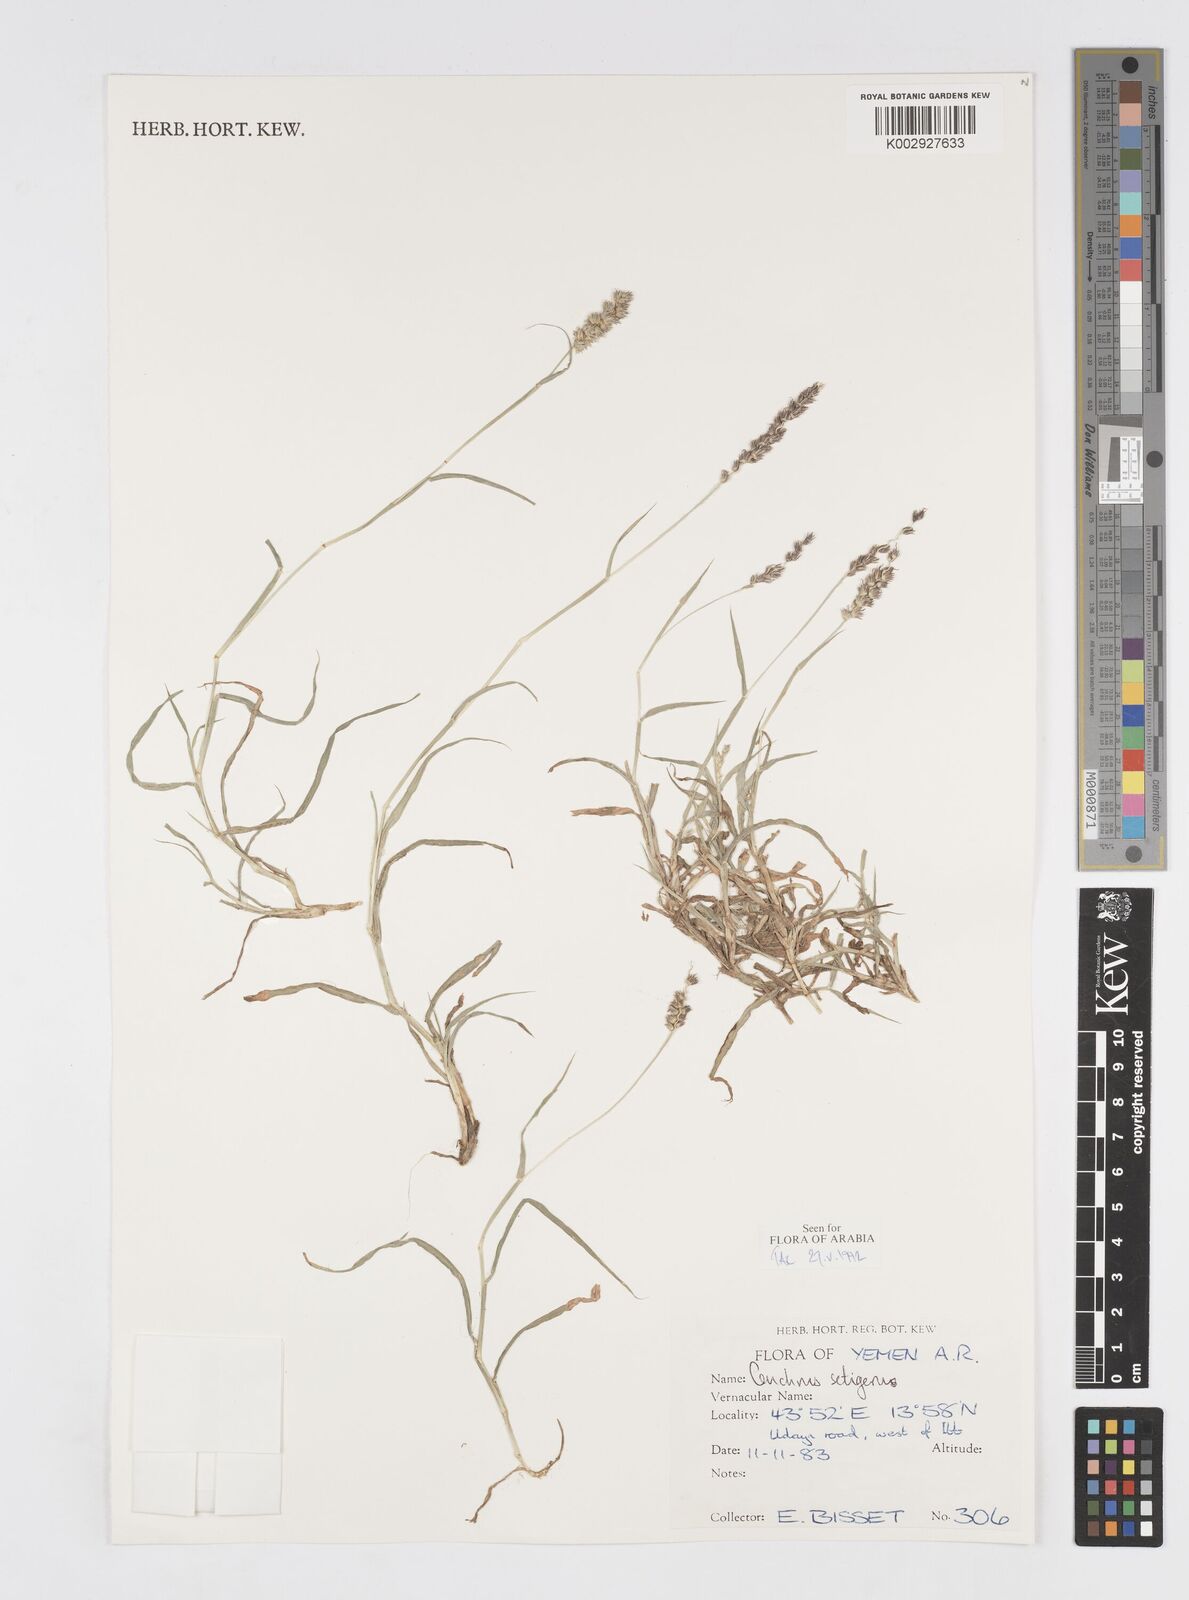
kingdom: Plantae
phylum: Tracheophyta
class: Liliopsida
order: Poales
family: Poaceae
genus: Cenchrus
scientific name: Cenchrus setigerus
